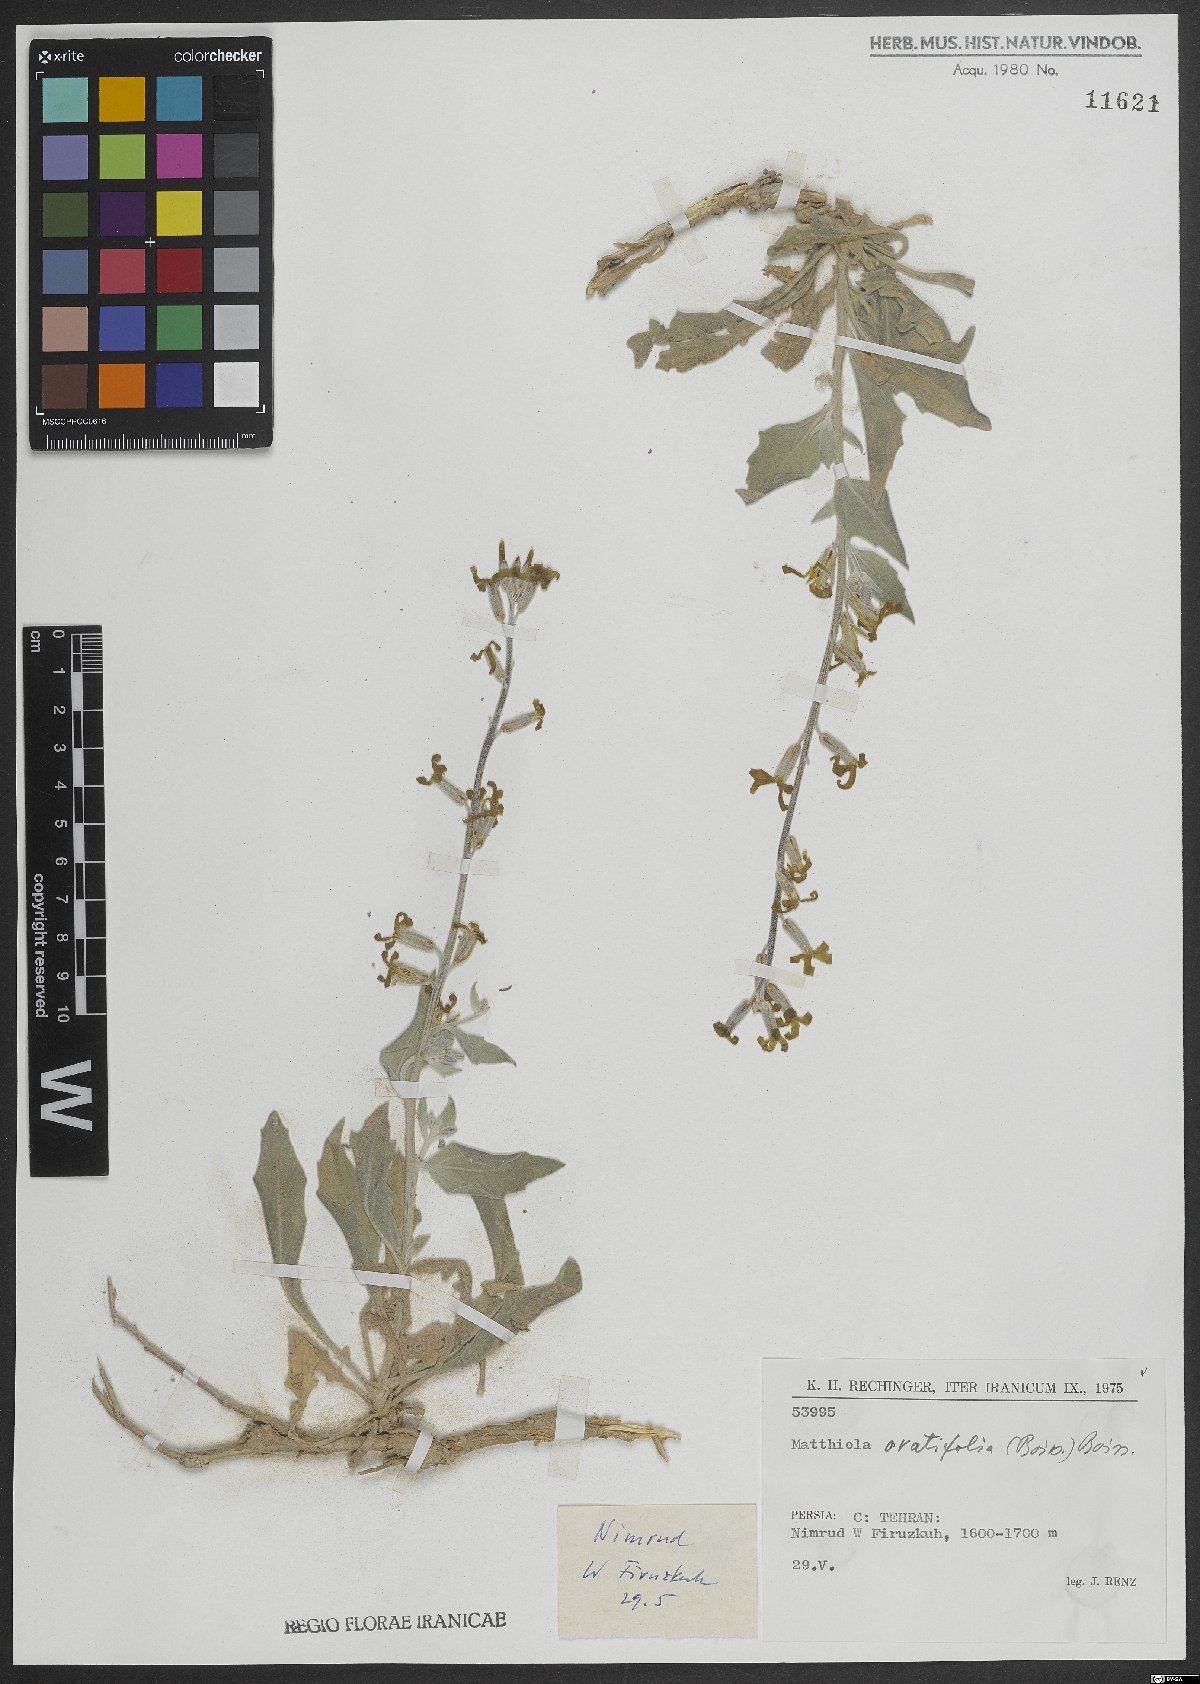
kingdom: Plantae
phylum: Tracheophyta
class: Magnoliopsida
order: Brassicales
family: Brassicaceae
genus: Matthiola
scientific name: Matthiola ovatifolia
